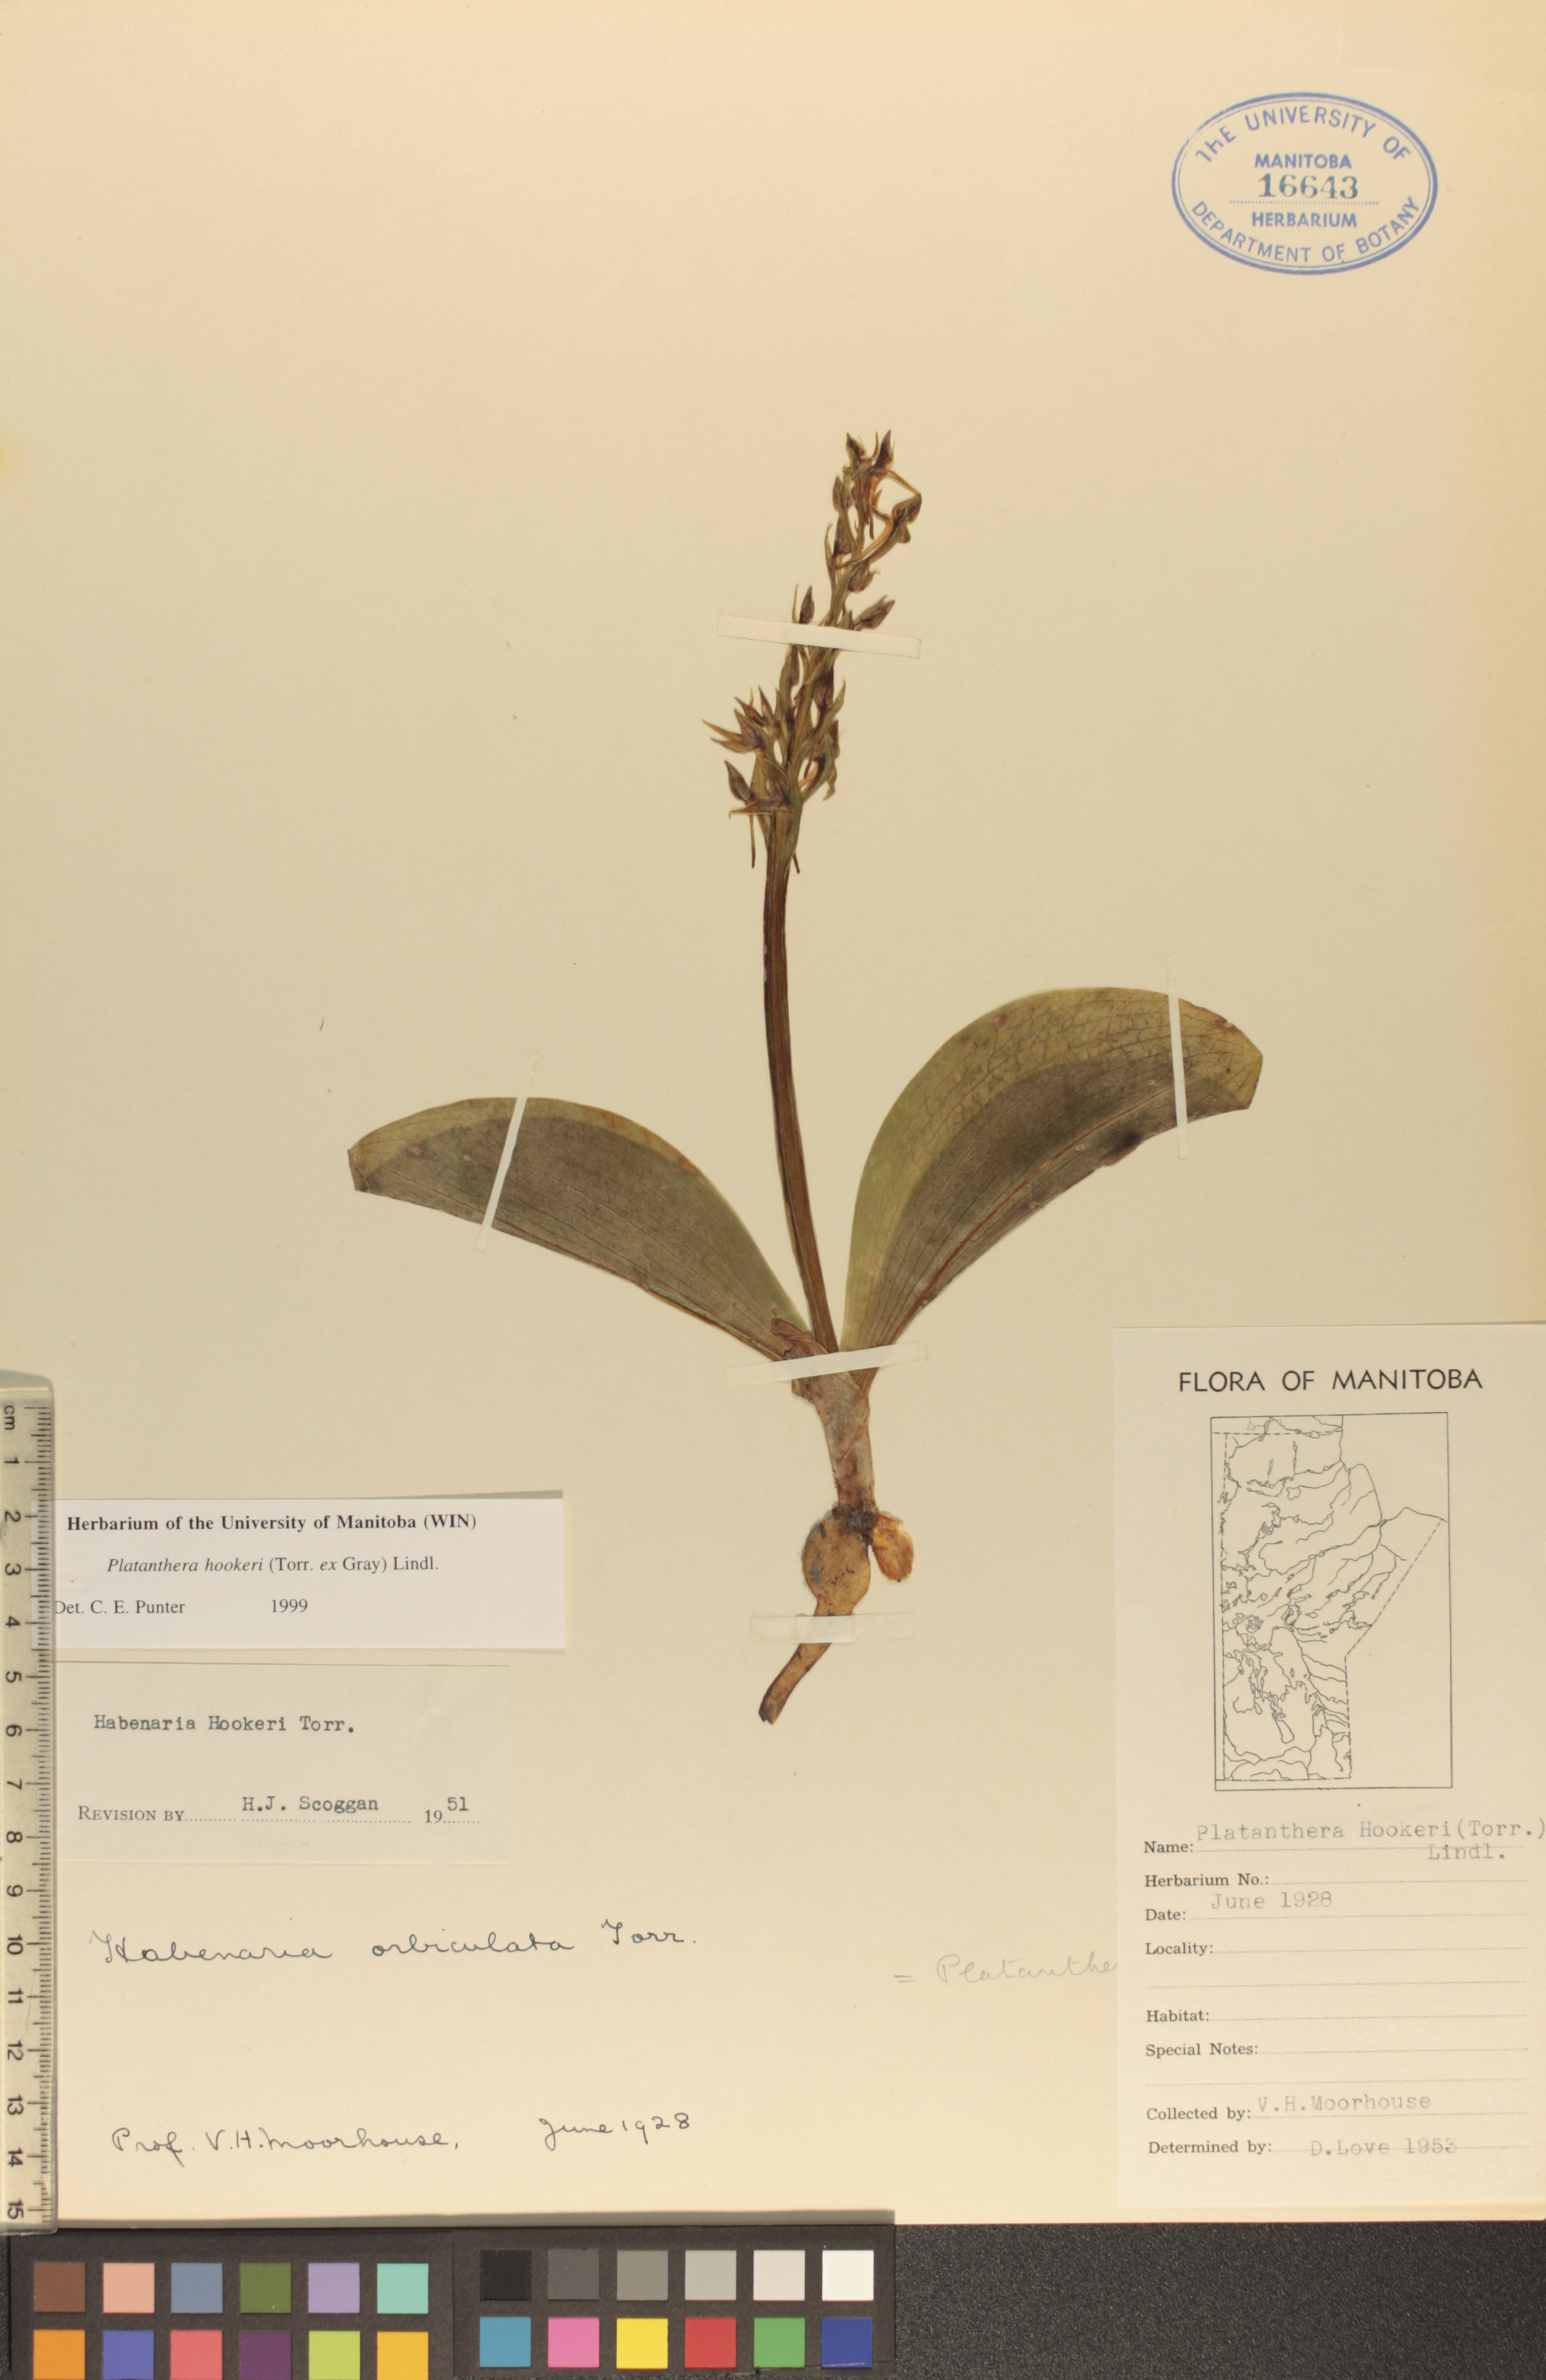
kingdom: Plantae
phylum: Tracheophyta
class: Liliopsida
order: Asparagales
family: Orchidaceae
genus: Platanthera
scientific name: Platanthera hookeri
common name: Hooker's orchid
